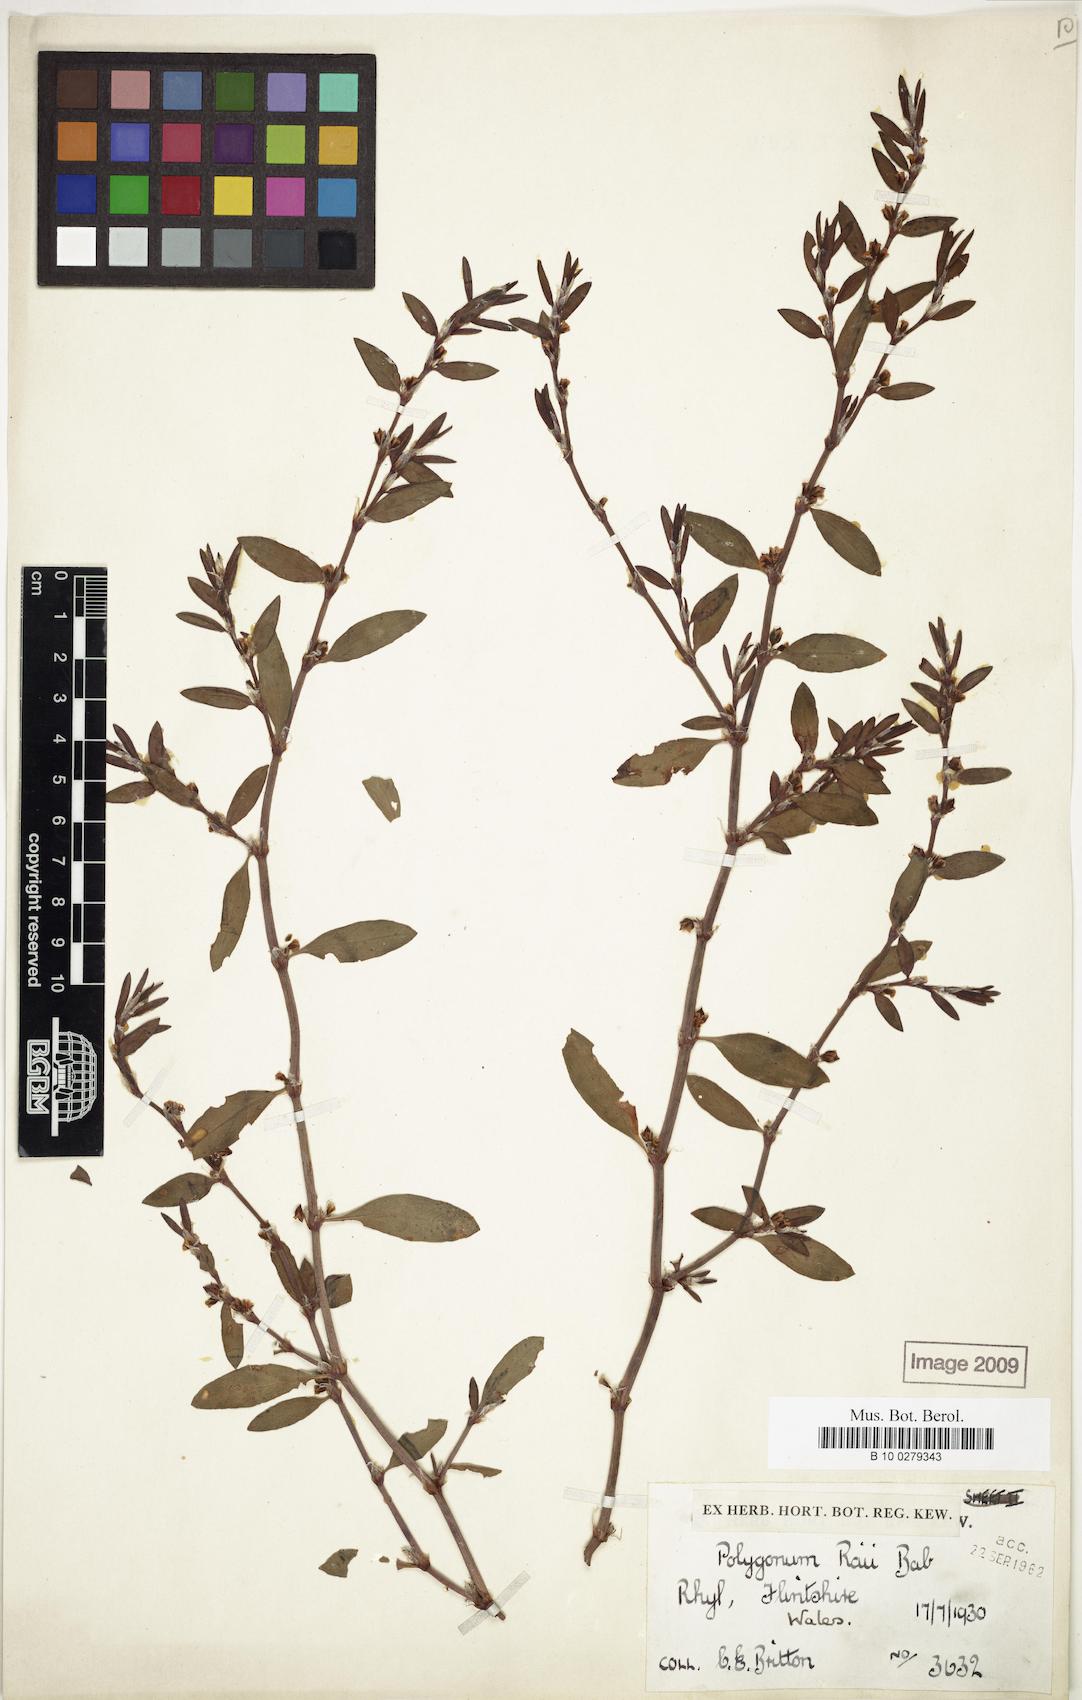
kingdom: Plantae
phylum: Tracheophyta
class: Magnoliopsida
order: Caryophyllales
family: Polygonaceae
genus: Polygonum
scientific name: Polygonum raii
